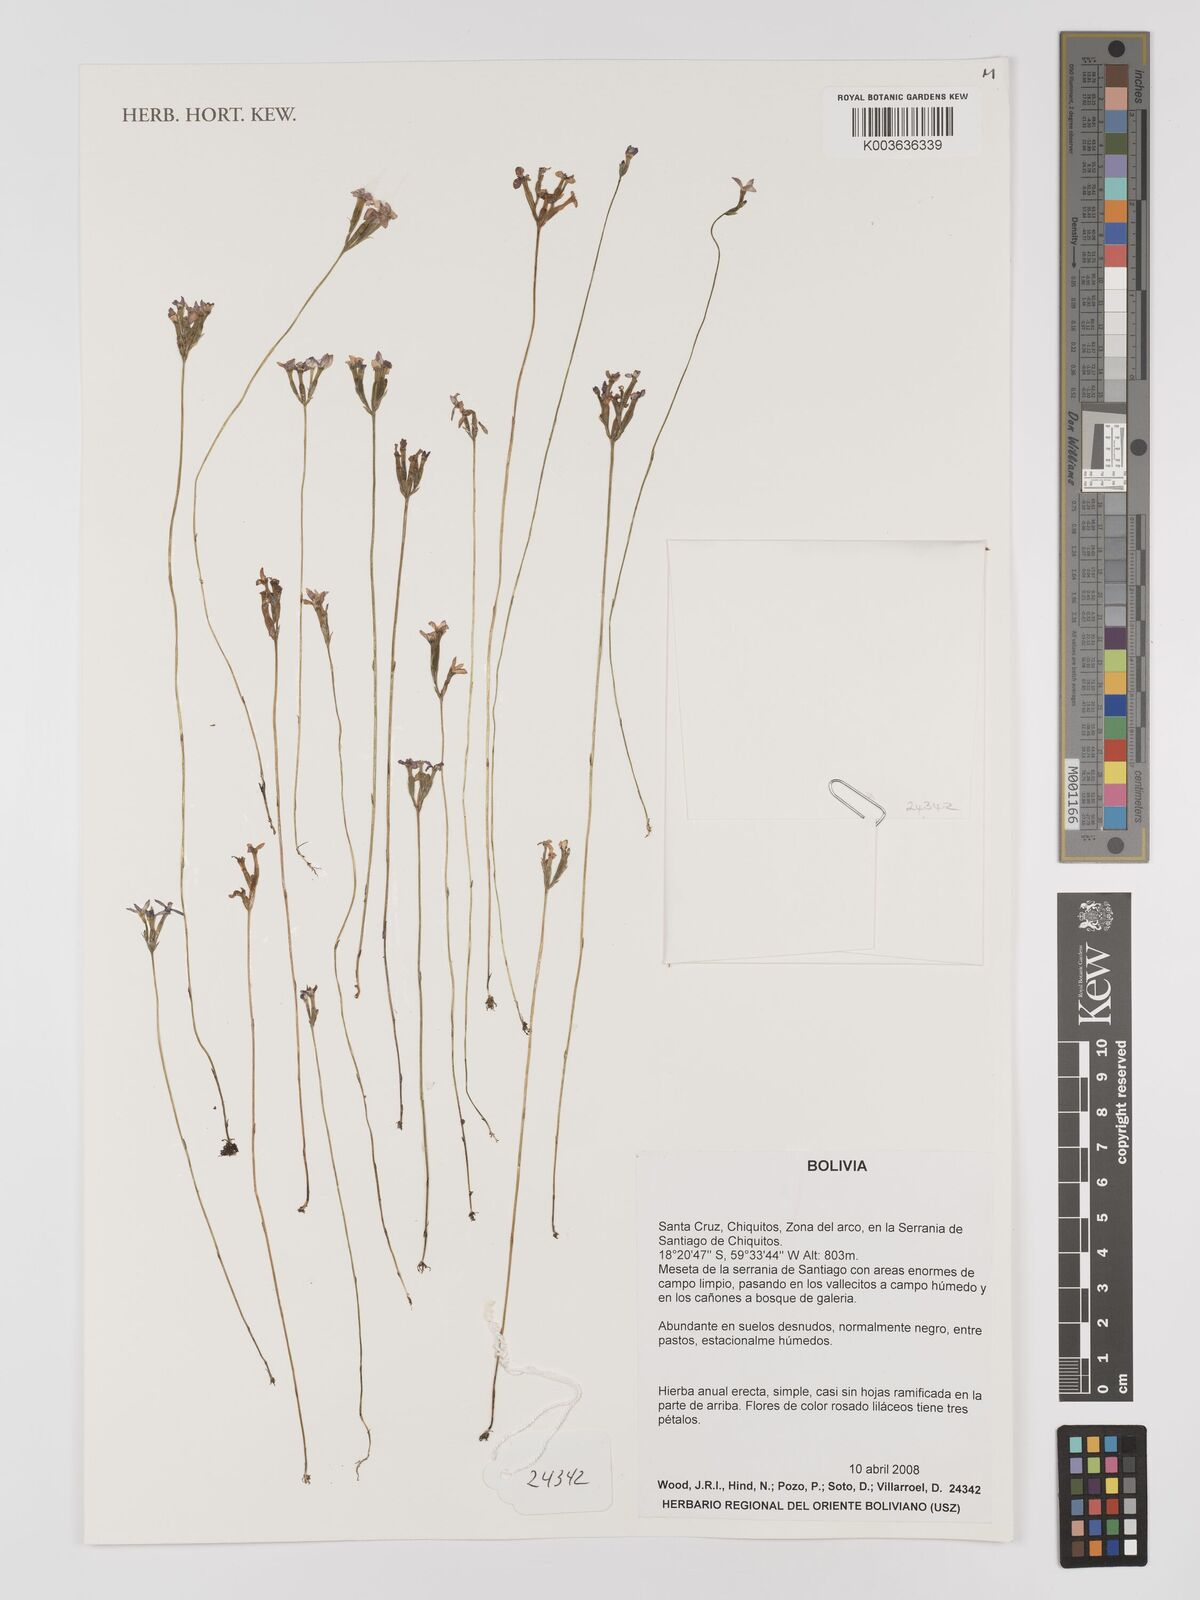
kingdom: Plantae
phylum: Tracheophyta
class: Liliopsida
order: Dioscoreales
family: Burmanniaceae
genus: Burmannia
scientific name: Burmannia alba
